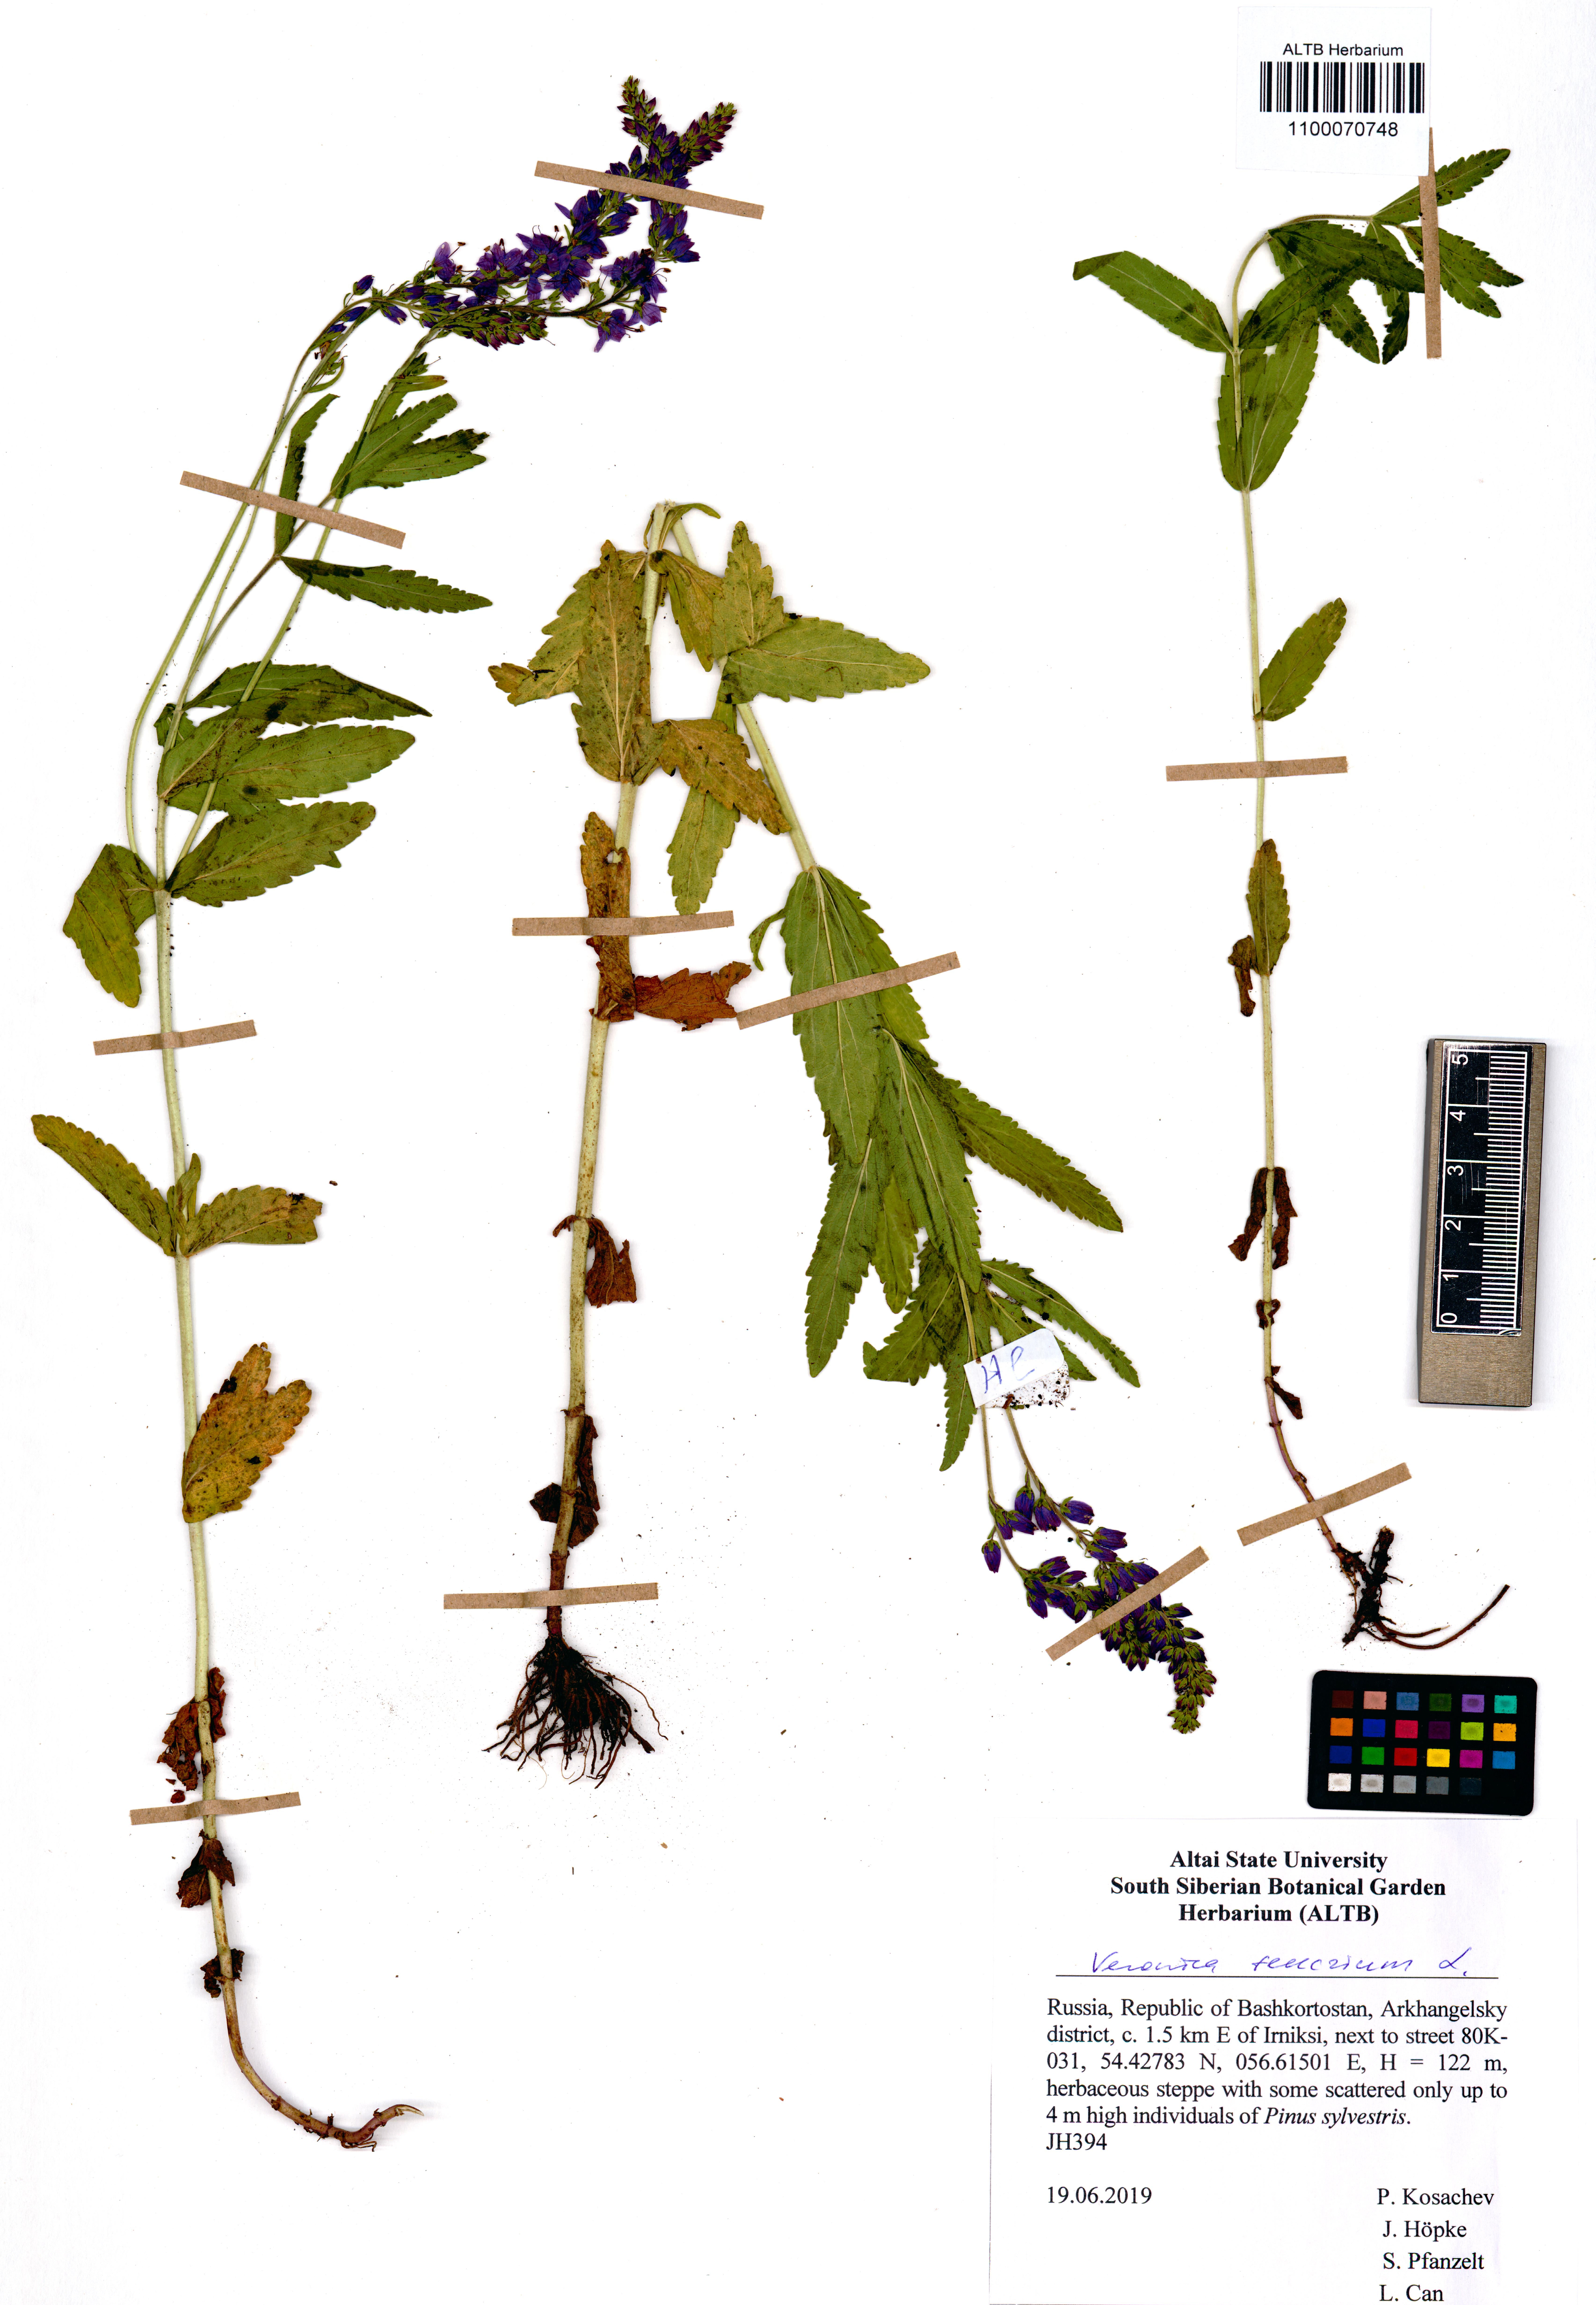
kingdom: Plantae
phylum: Tracheophyta
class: Magnoliopsida
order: Lamiales
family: Plantaginaceae
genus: Veronica
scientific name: Veronica teucrium
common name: Large speedwell
